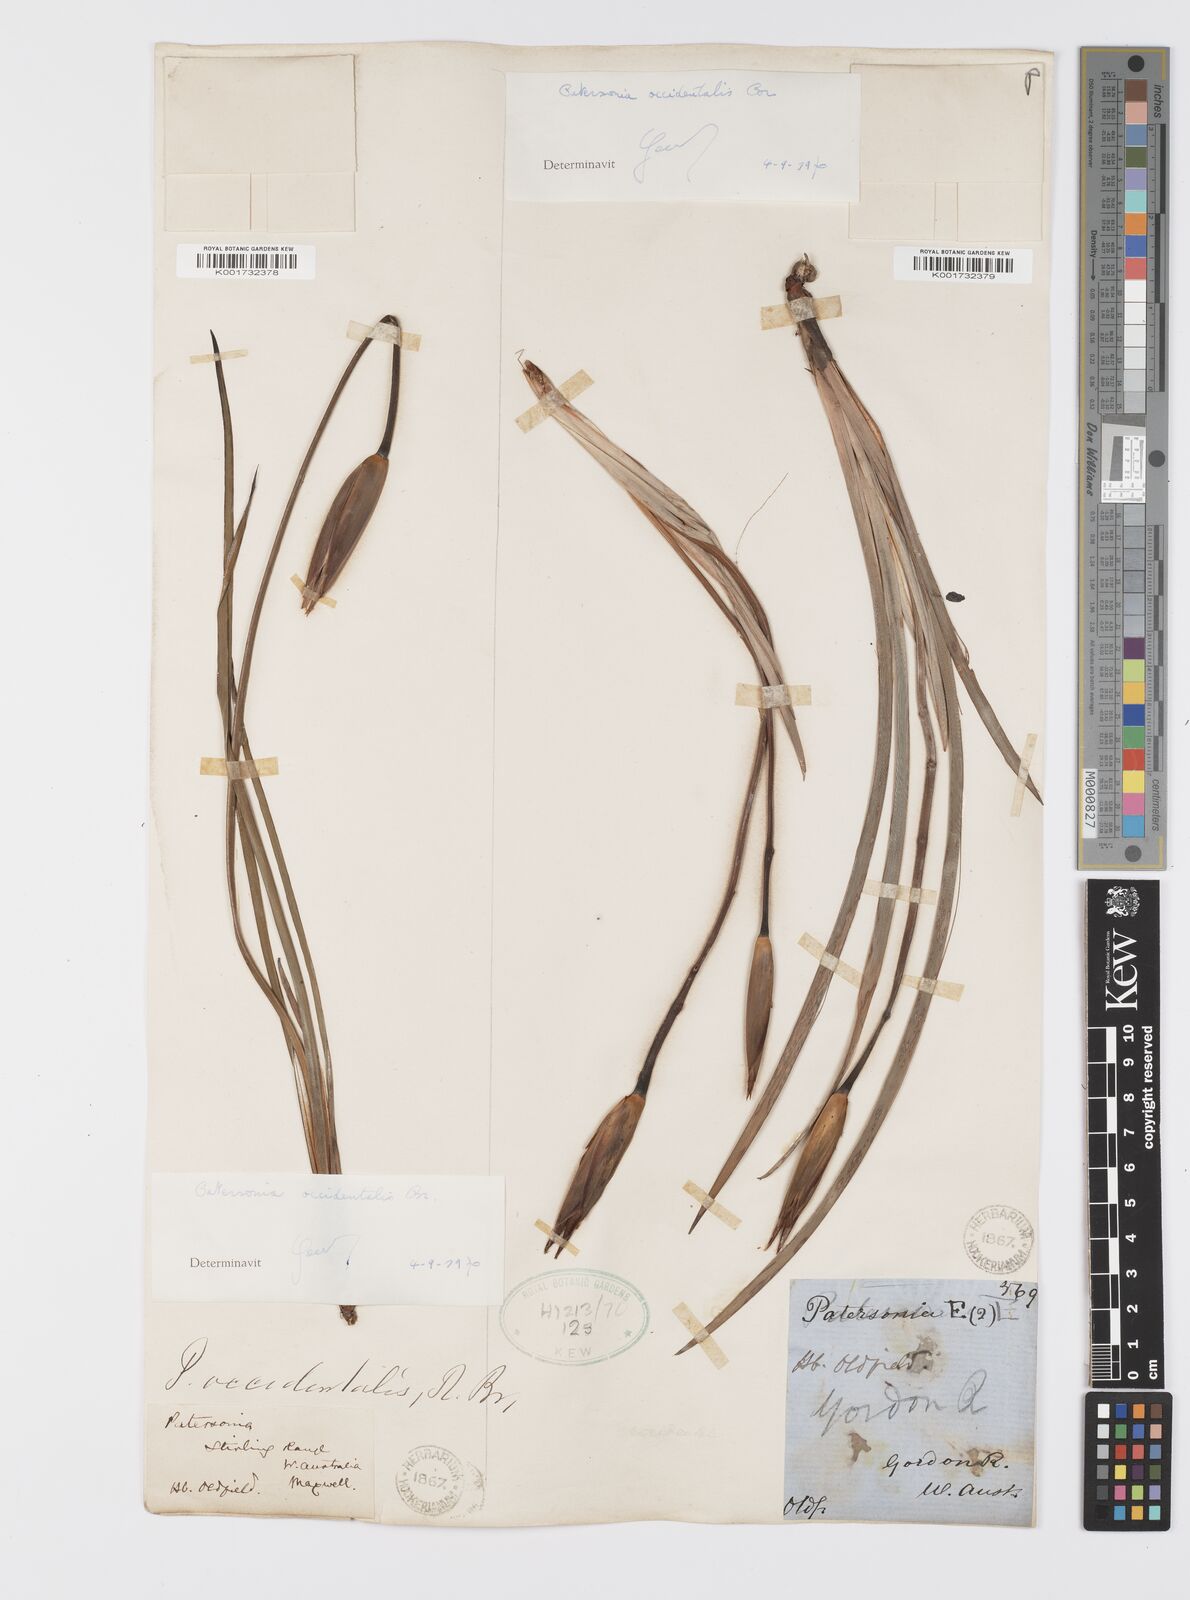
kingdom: Plantae
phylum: Tracheophyta
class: Liliopsida
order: Asparagales
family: Iridaceae
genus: Patersonia
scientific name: Patersonia occidentalis
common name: Long purple-flag
